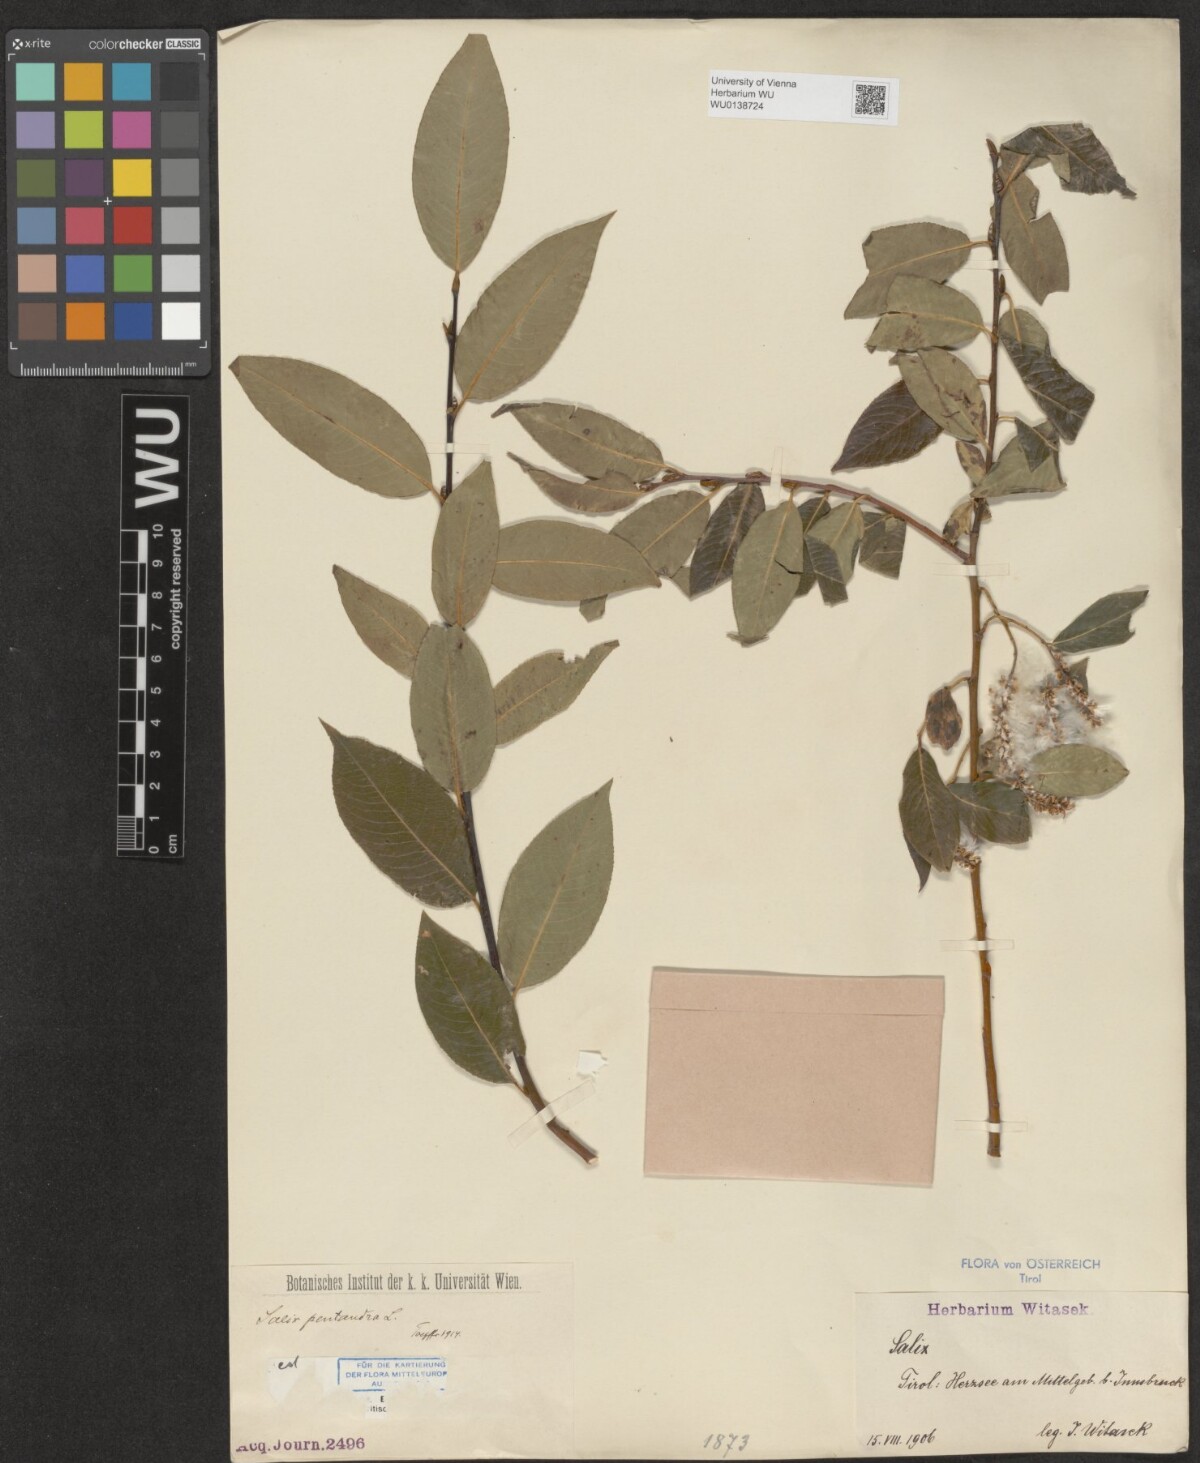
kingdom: Plantae
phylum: Tracheophyta
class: Magnoliopsida
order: Malpighiales
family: Salicaceae
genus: Salix
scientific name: Salix pentandra
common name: Bay willow
